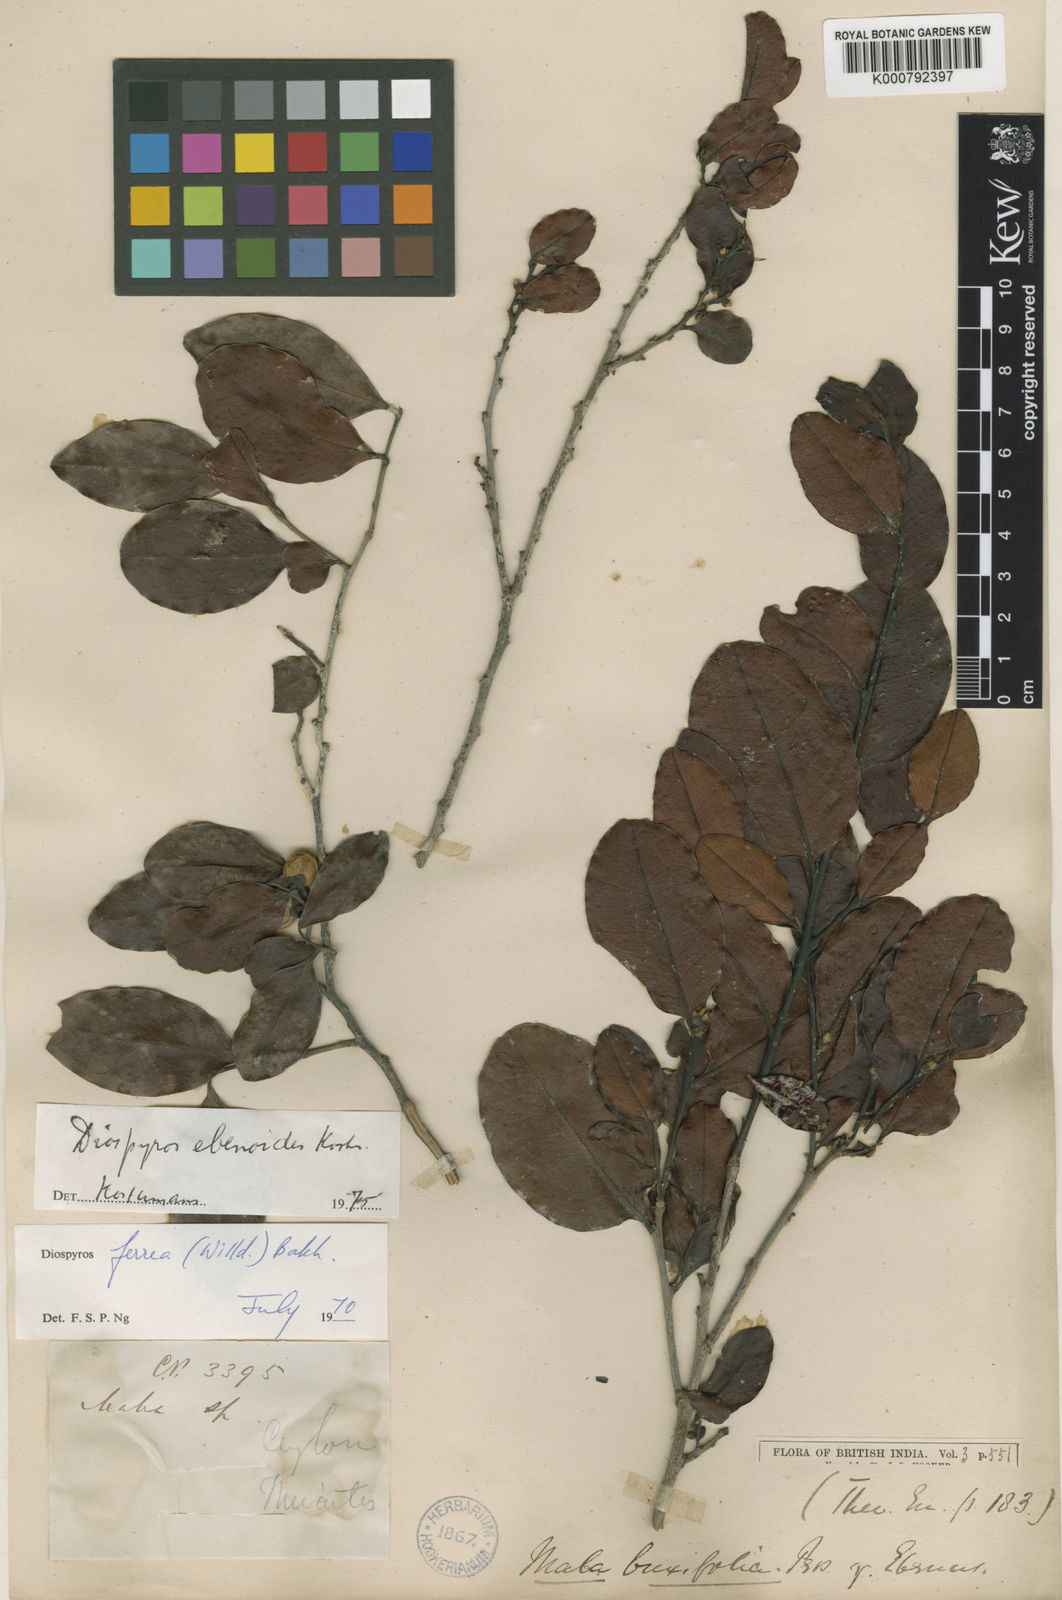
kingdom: Plantae
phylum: Tracheophyta
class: Magnoliopsida
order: Ericales
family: Ebenaceae
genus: Diospyros
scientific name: Diospyros buxifolia
